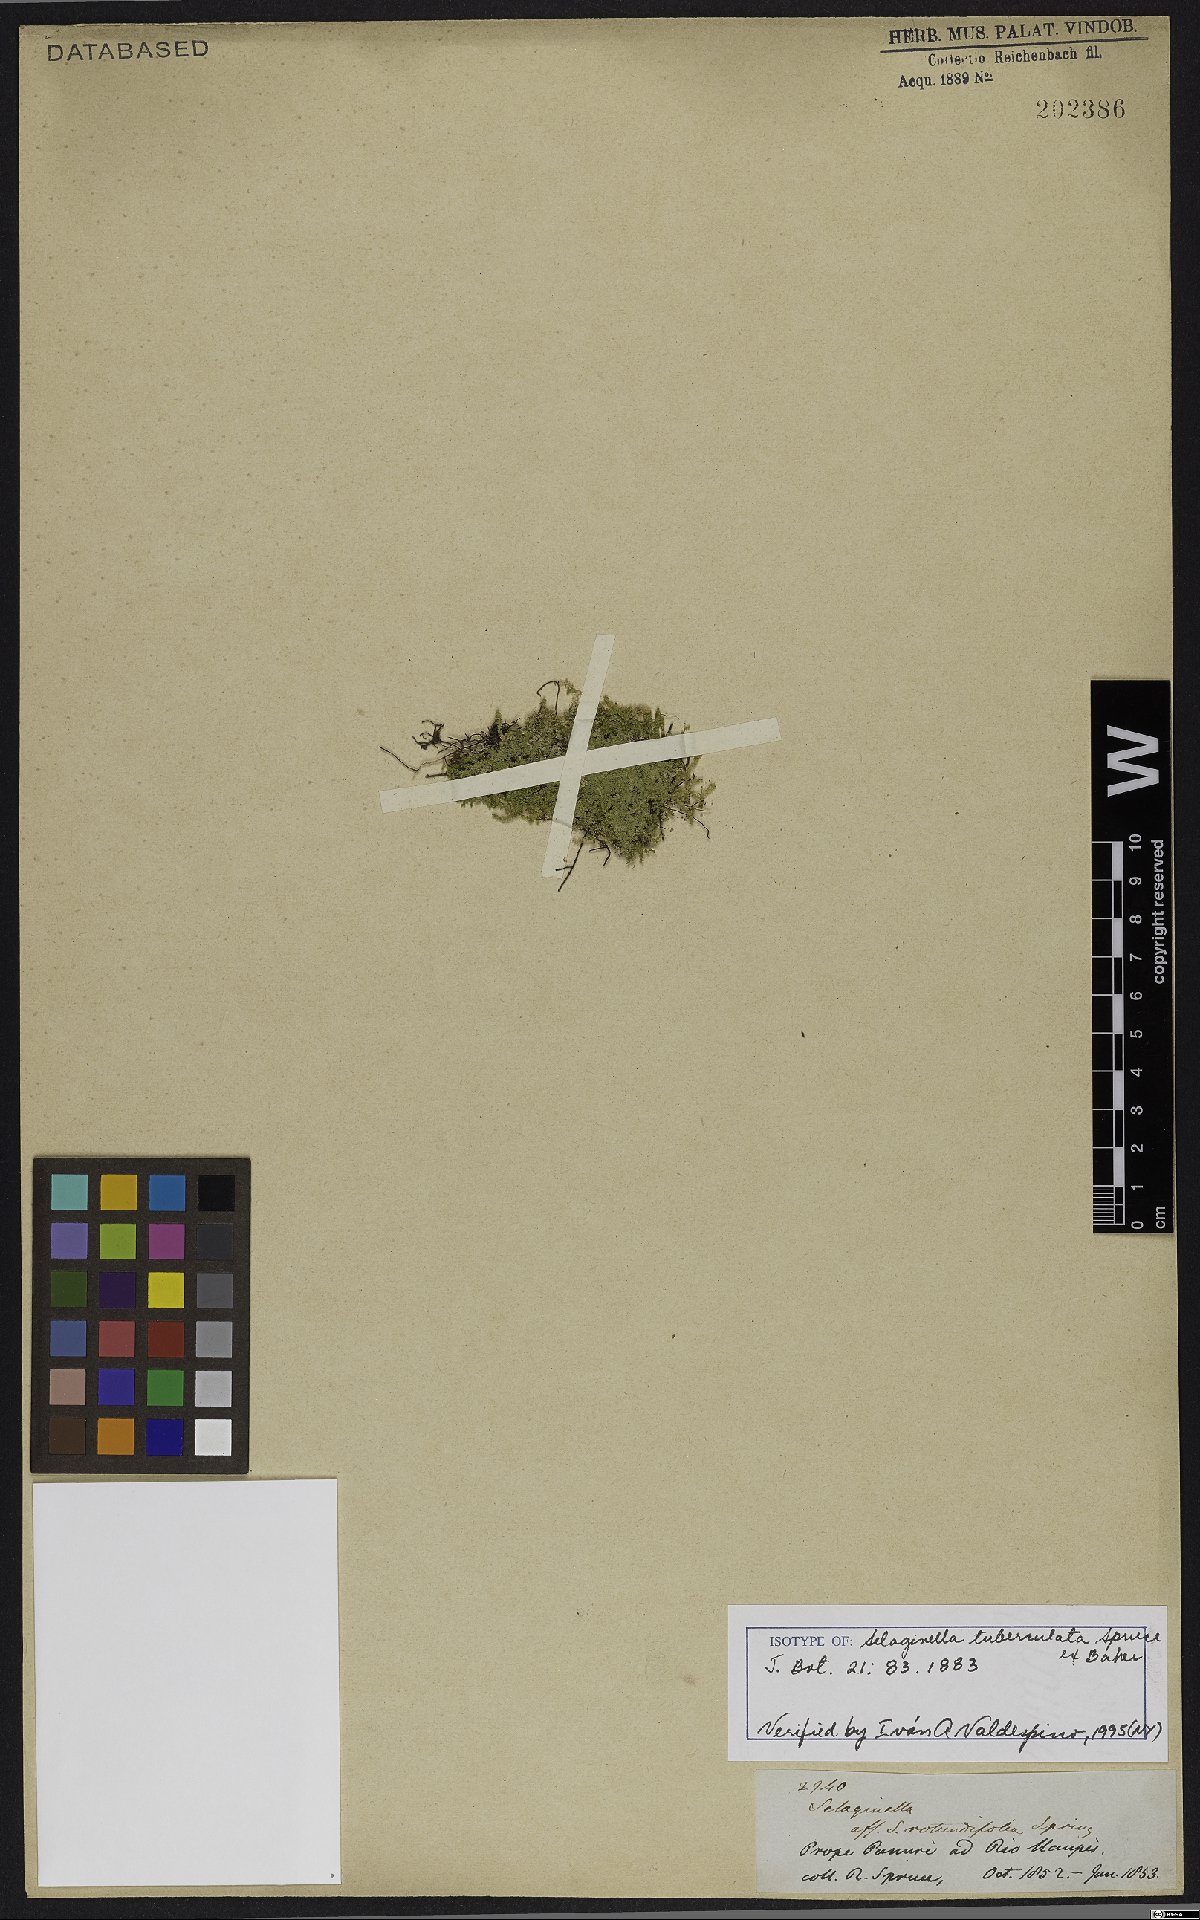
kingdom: Plantae
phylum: Tracheophyta
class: Lycopodiopsida
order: Selaginellales
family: Selaginellaceae
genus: Selaginella
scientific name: Selaginella tuberculata
